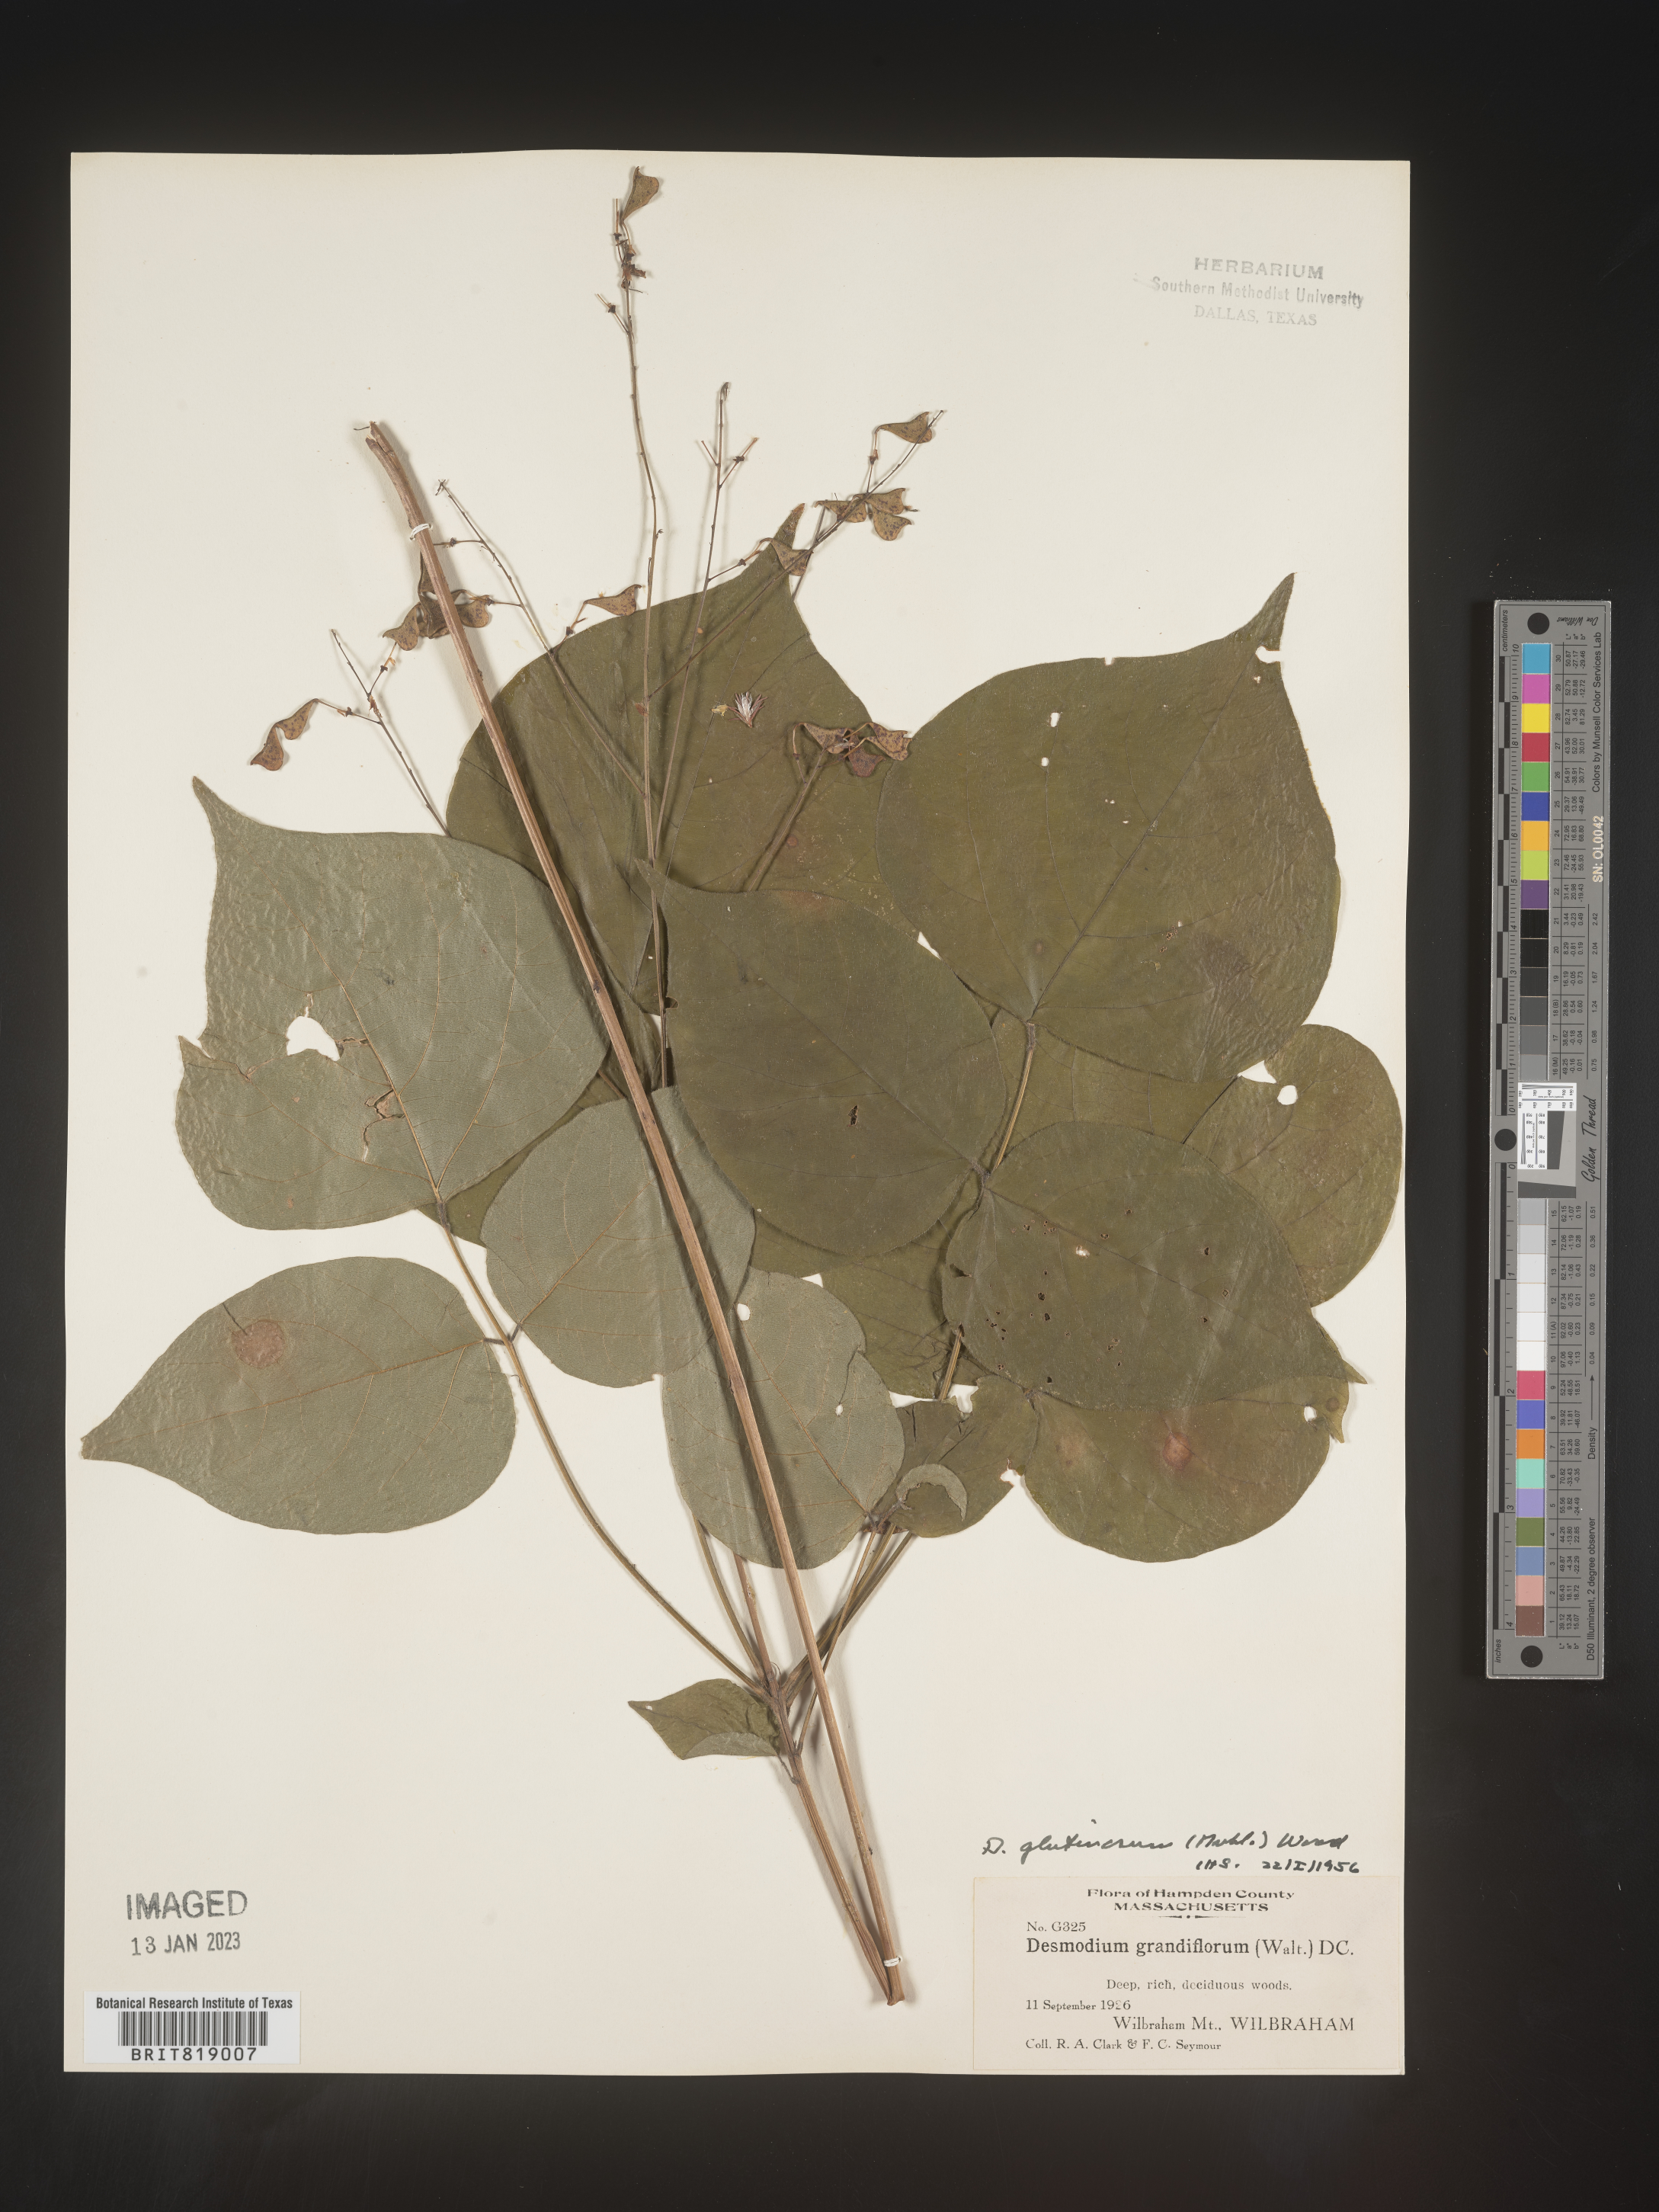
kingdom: Plantae
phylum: Tracheophyta
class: Magnoliopsida
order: Fabales
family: Fabaceae
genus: Hylodesmum
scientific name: Hylodesmum glutinosum
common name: Clustered-leaved tick-trefoil
